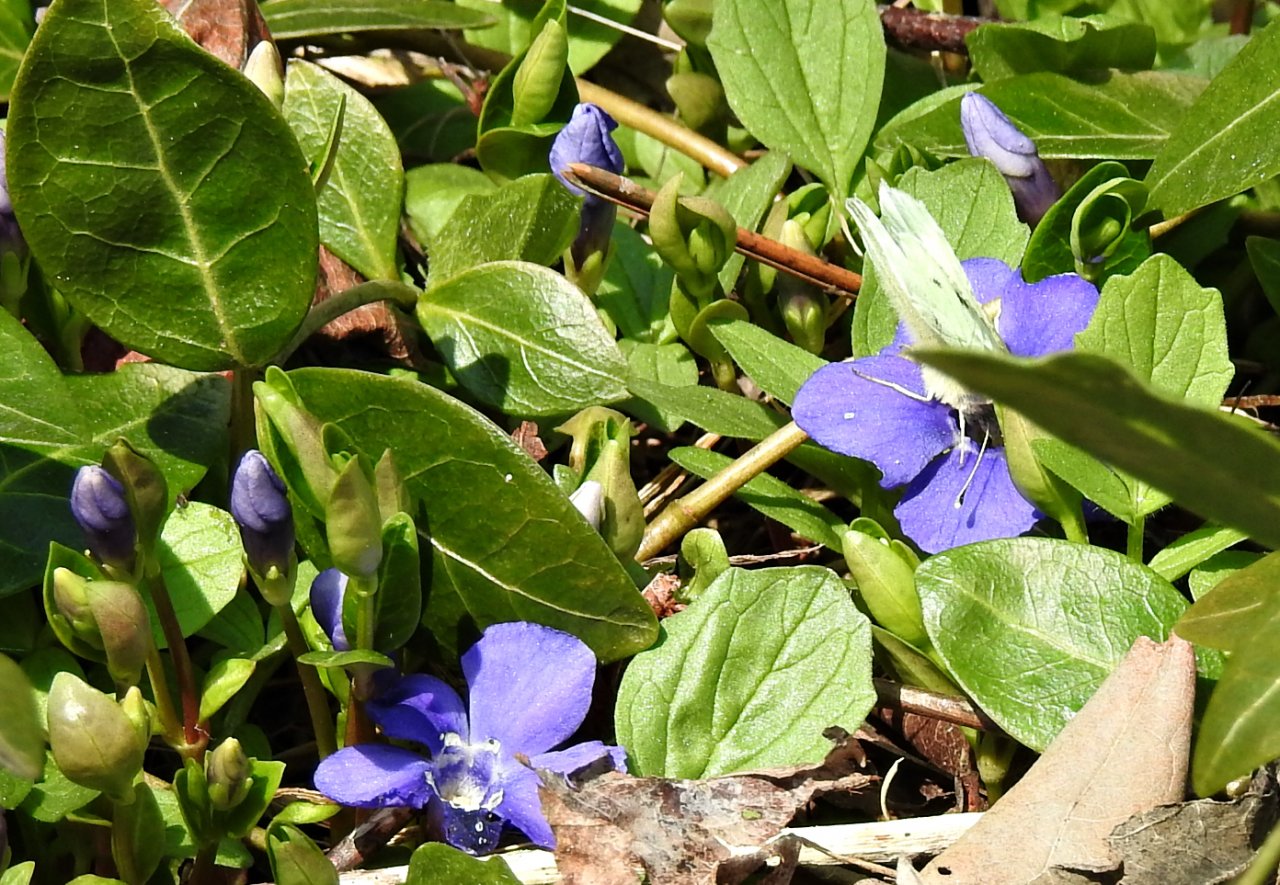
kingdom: Animalia
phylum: Arthropoda
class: Insecta
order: Lepidoptera
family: Pieridae
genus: Pieris
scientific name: Pieris rapae
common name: Cabbage White
